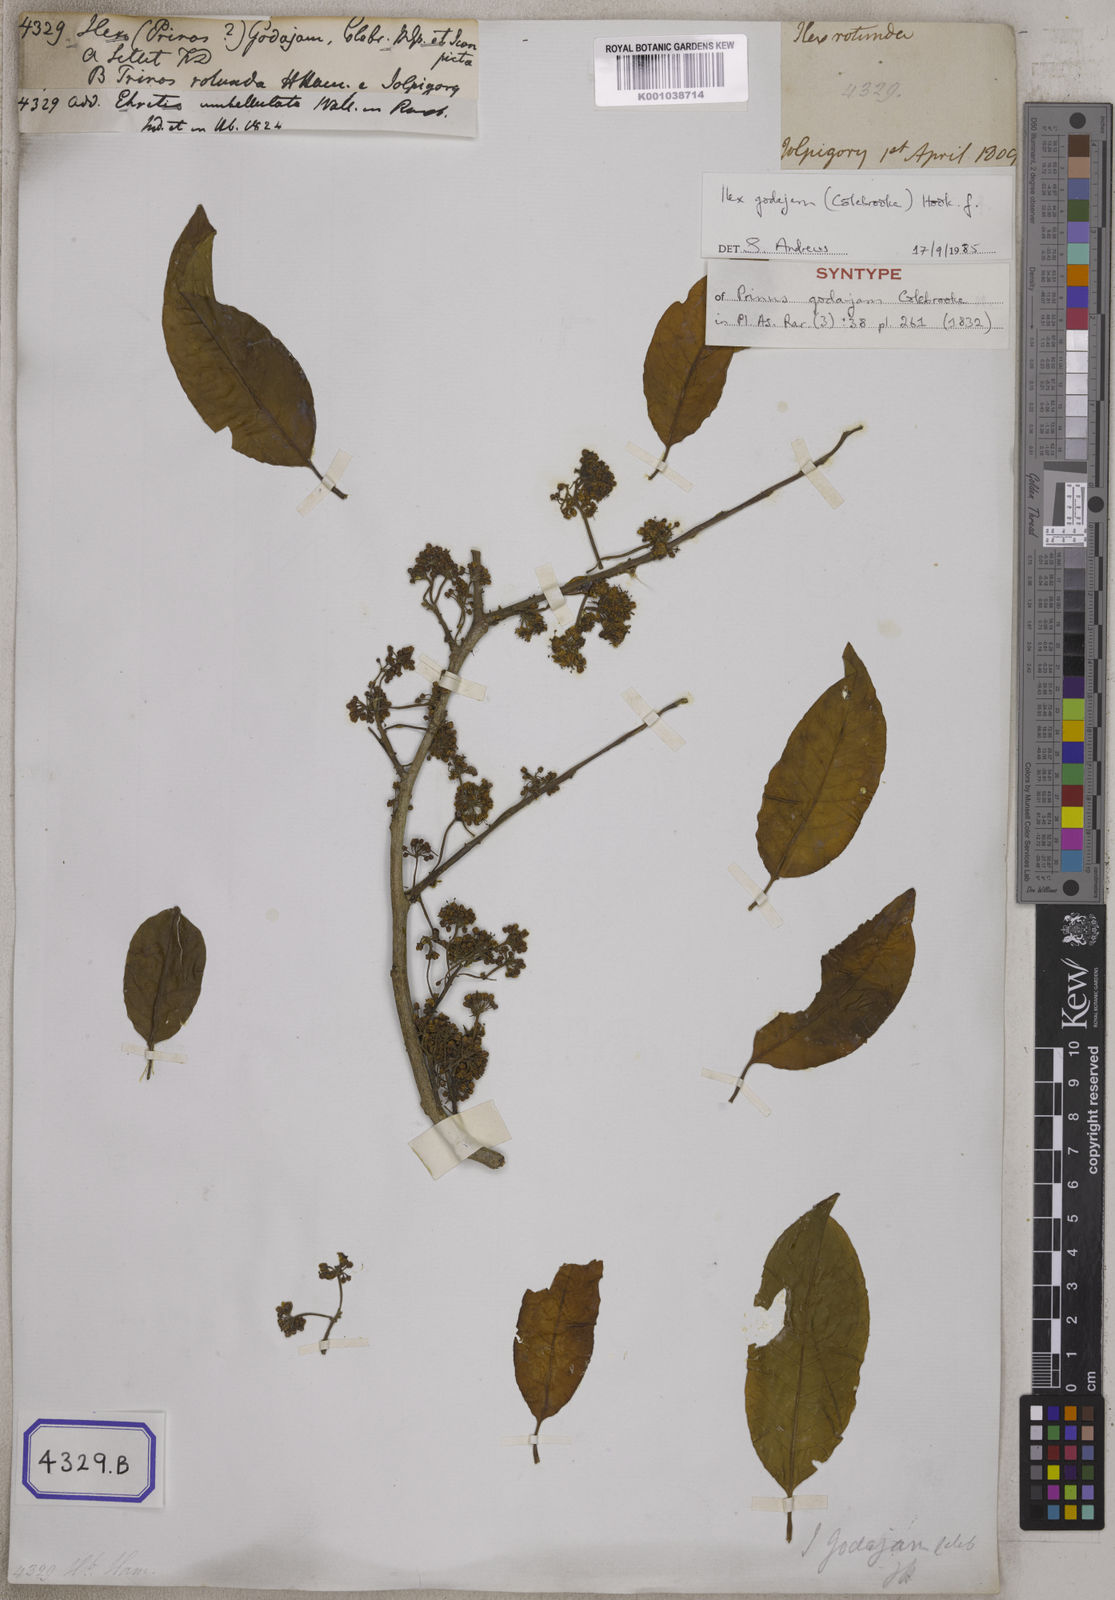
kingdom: Plantae
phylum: Tracheophyta
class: Magnoliopsida
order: Aquifoliales
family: Aquifoliaceae
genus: Ilex
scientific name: Ilex
